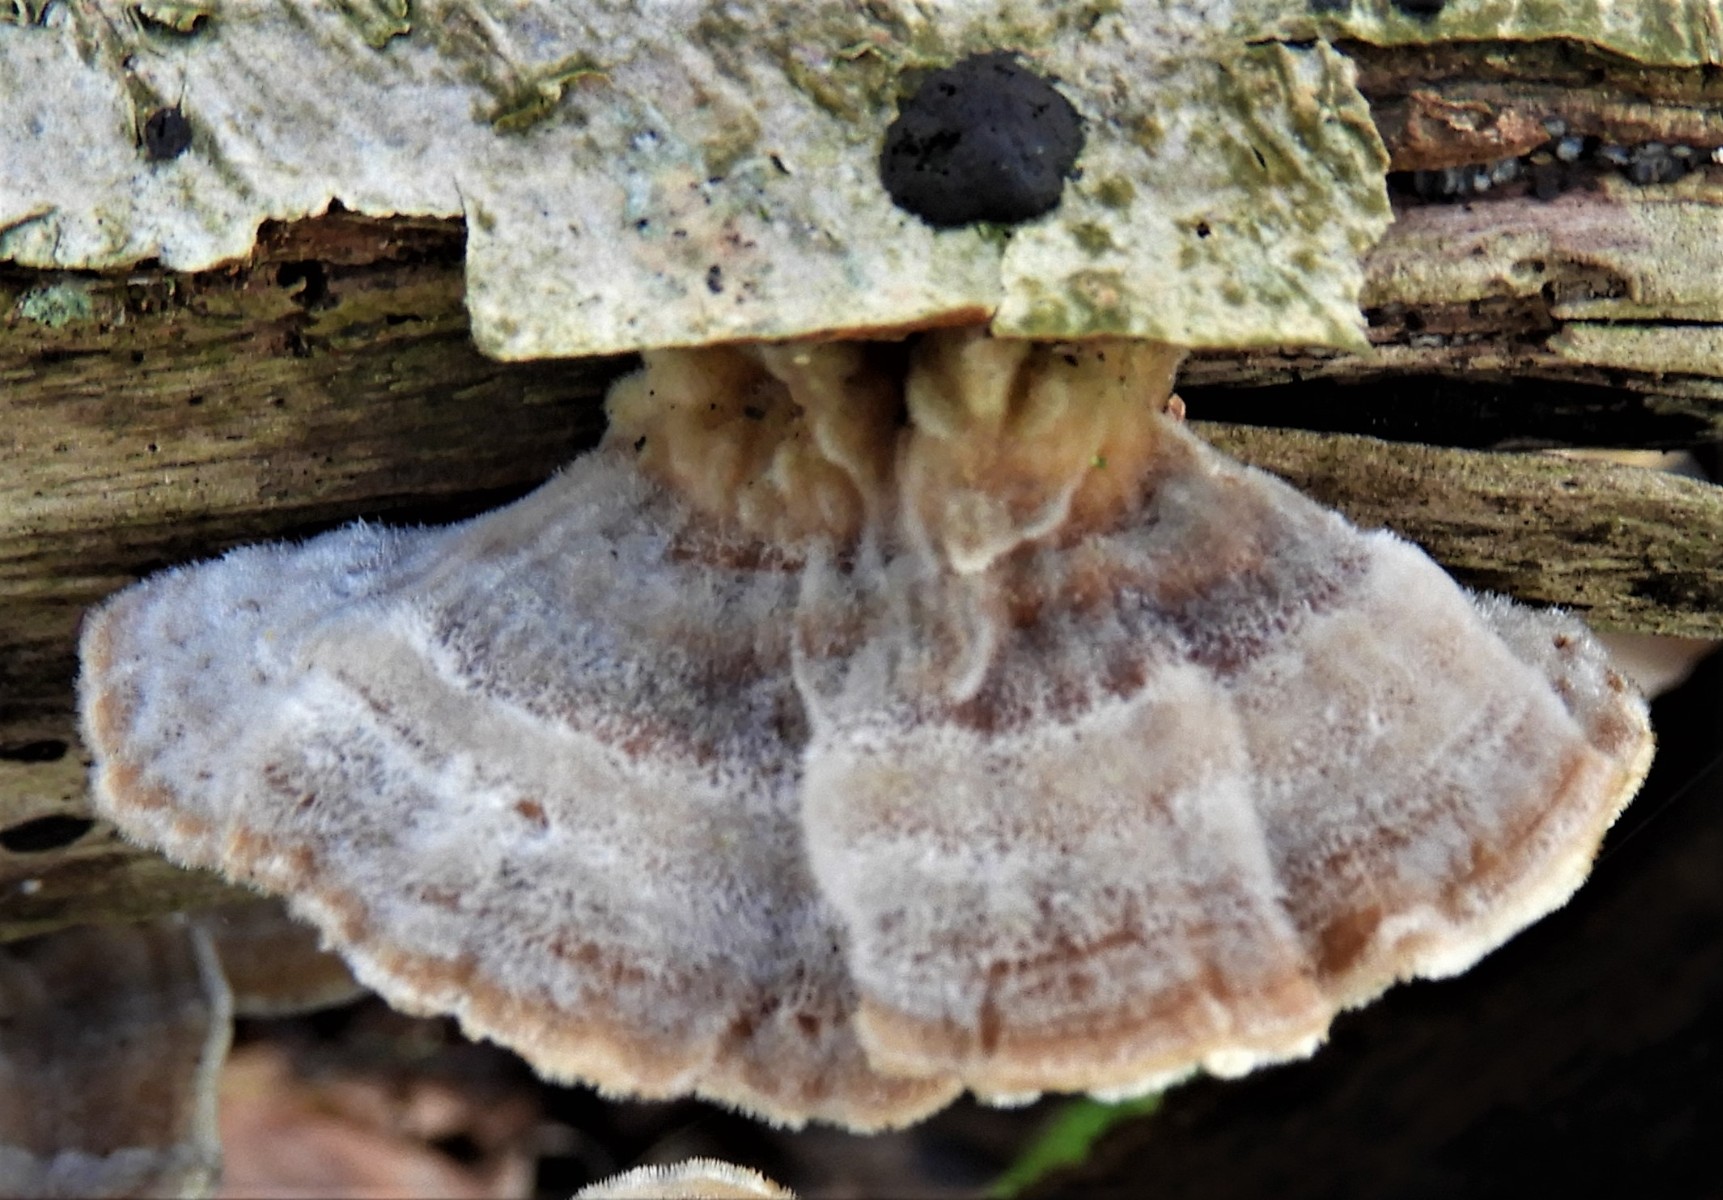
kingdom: Fungi
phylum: Basidiomycota
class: Agaricomycetes
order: Polyporales
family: Polyporaceae
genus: Trametes
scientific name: Trametes versicolor
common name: broget læderporesvamp
